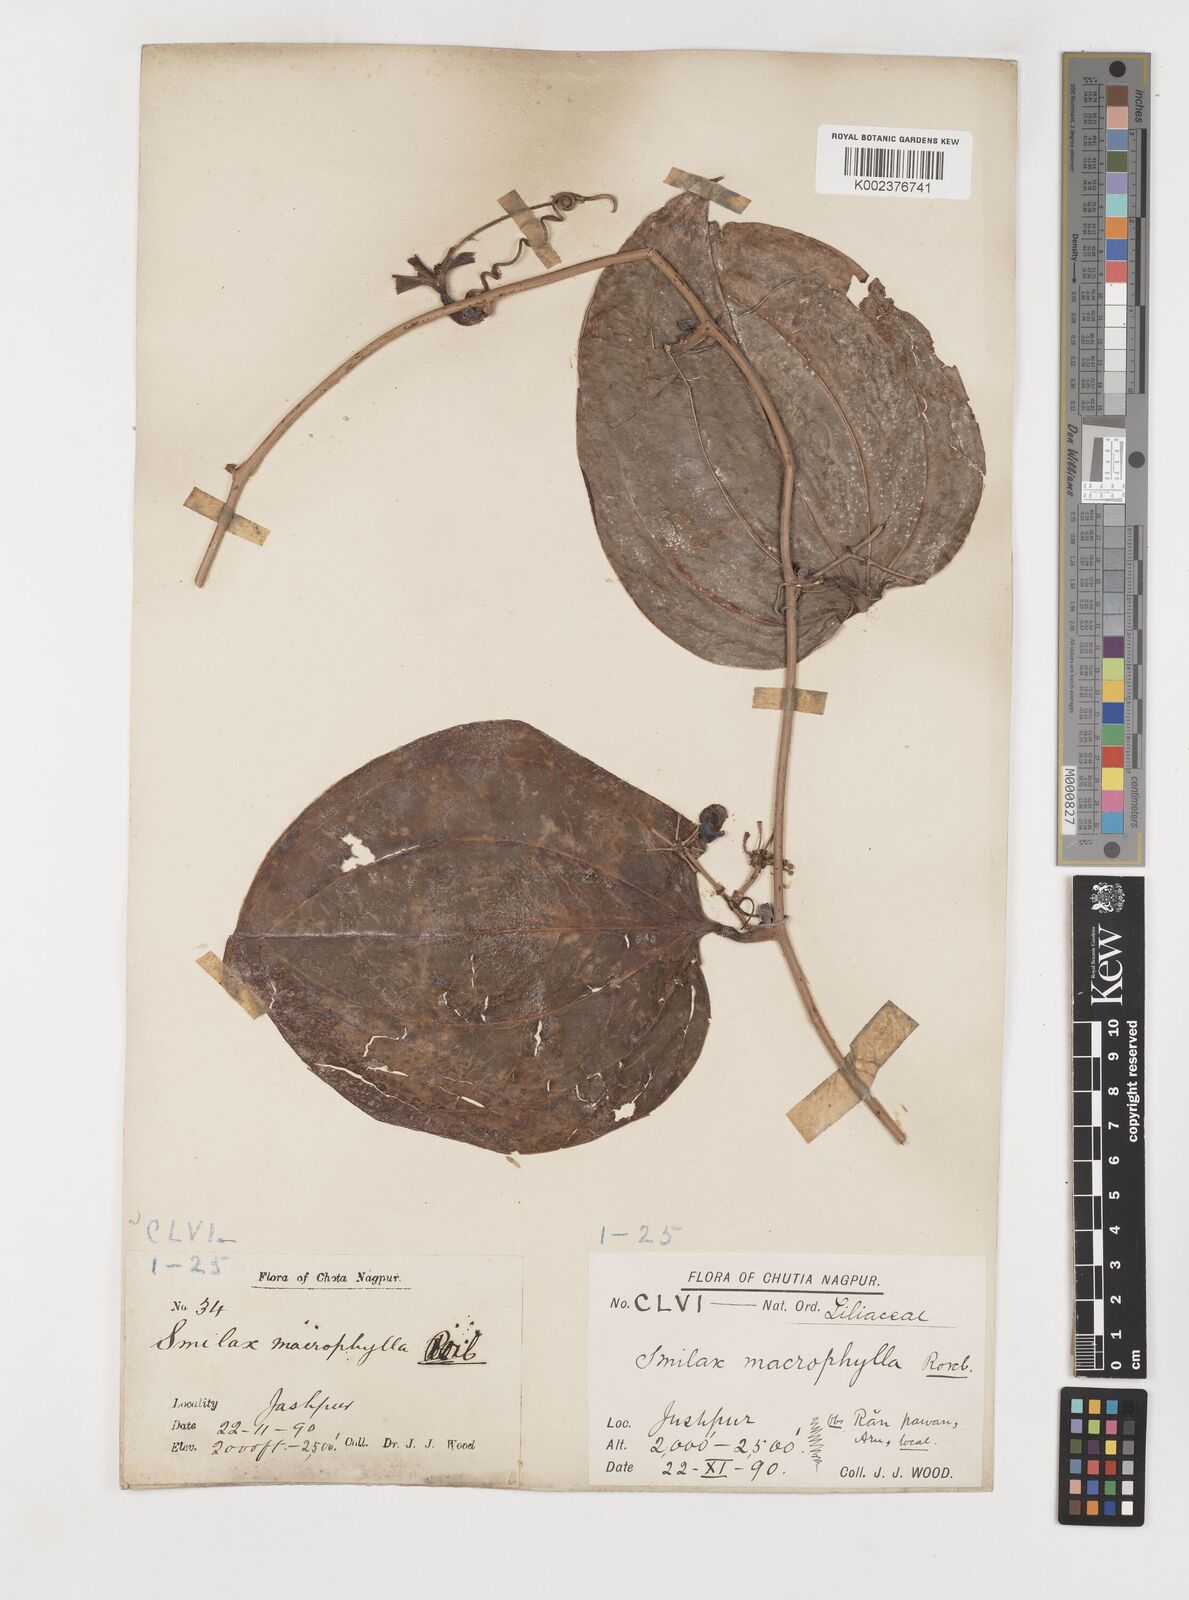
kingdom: Plantae
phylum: Tracheophyta
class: Liliopsida
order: Liliales
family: Smilacaceae
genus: Smilax
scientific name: Smilax ovalifolia
